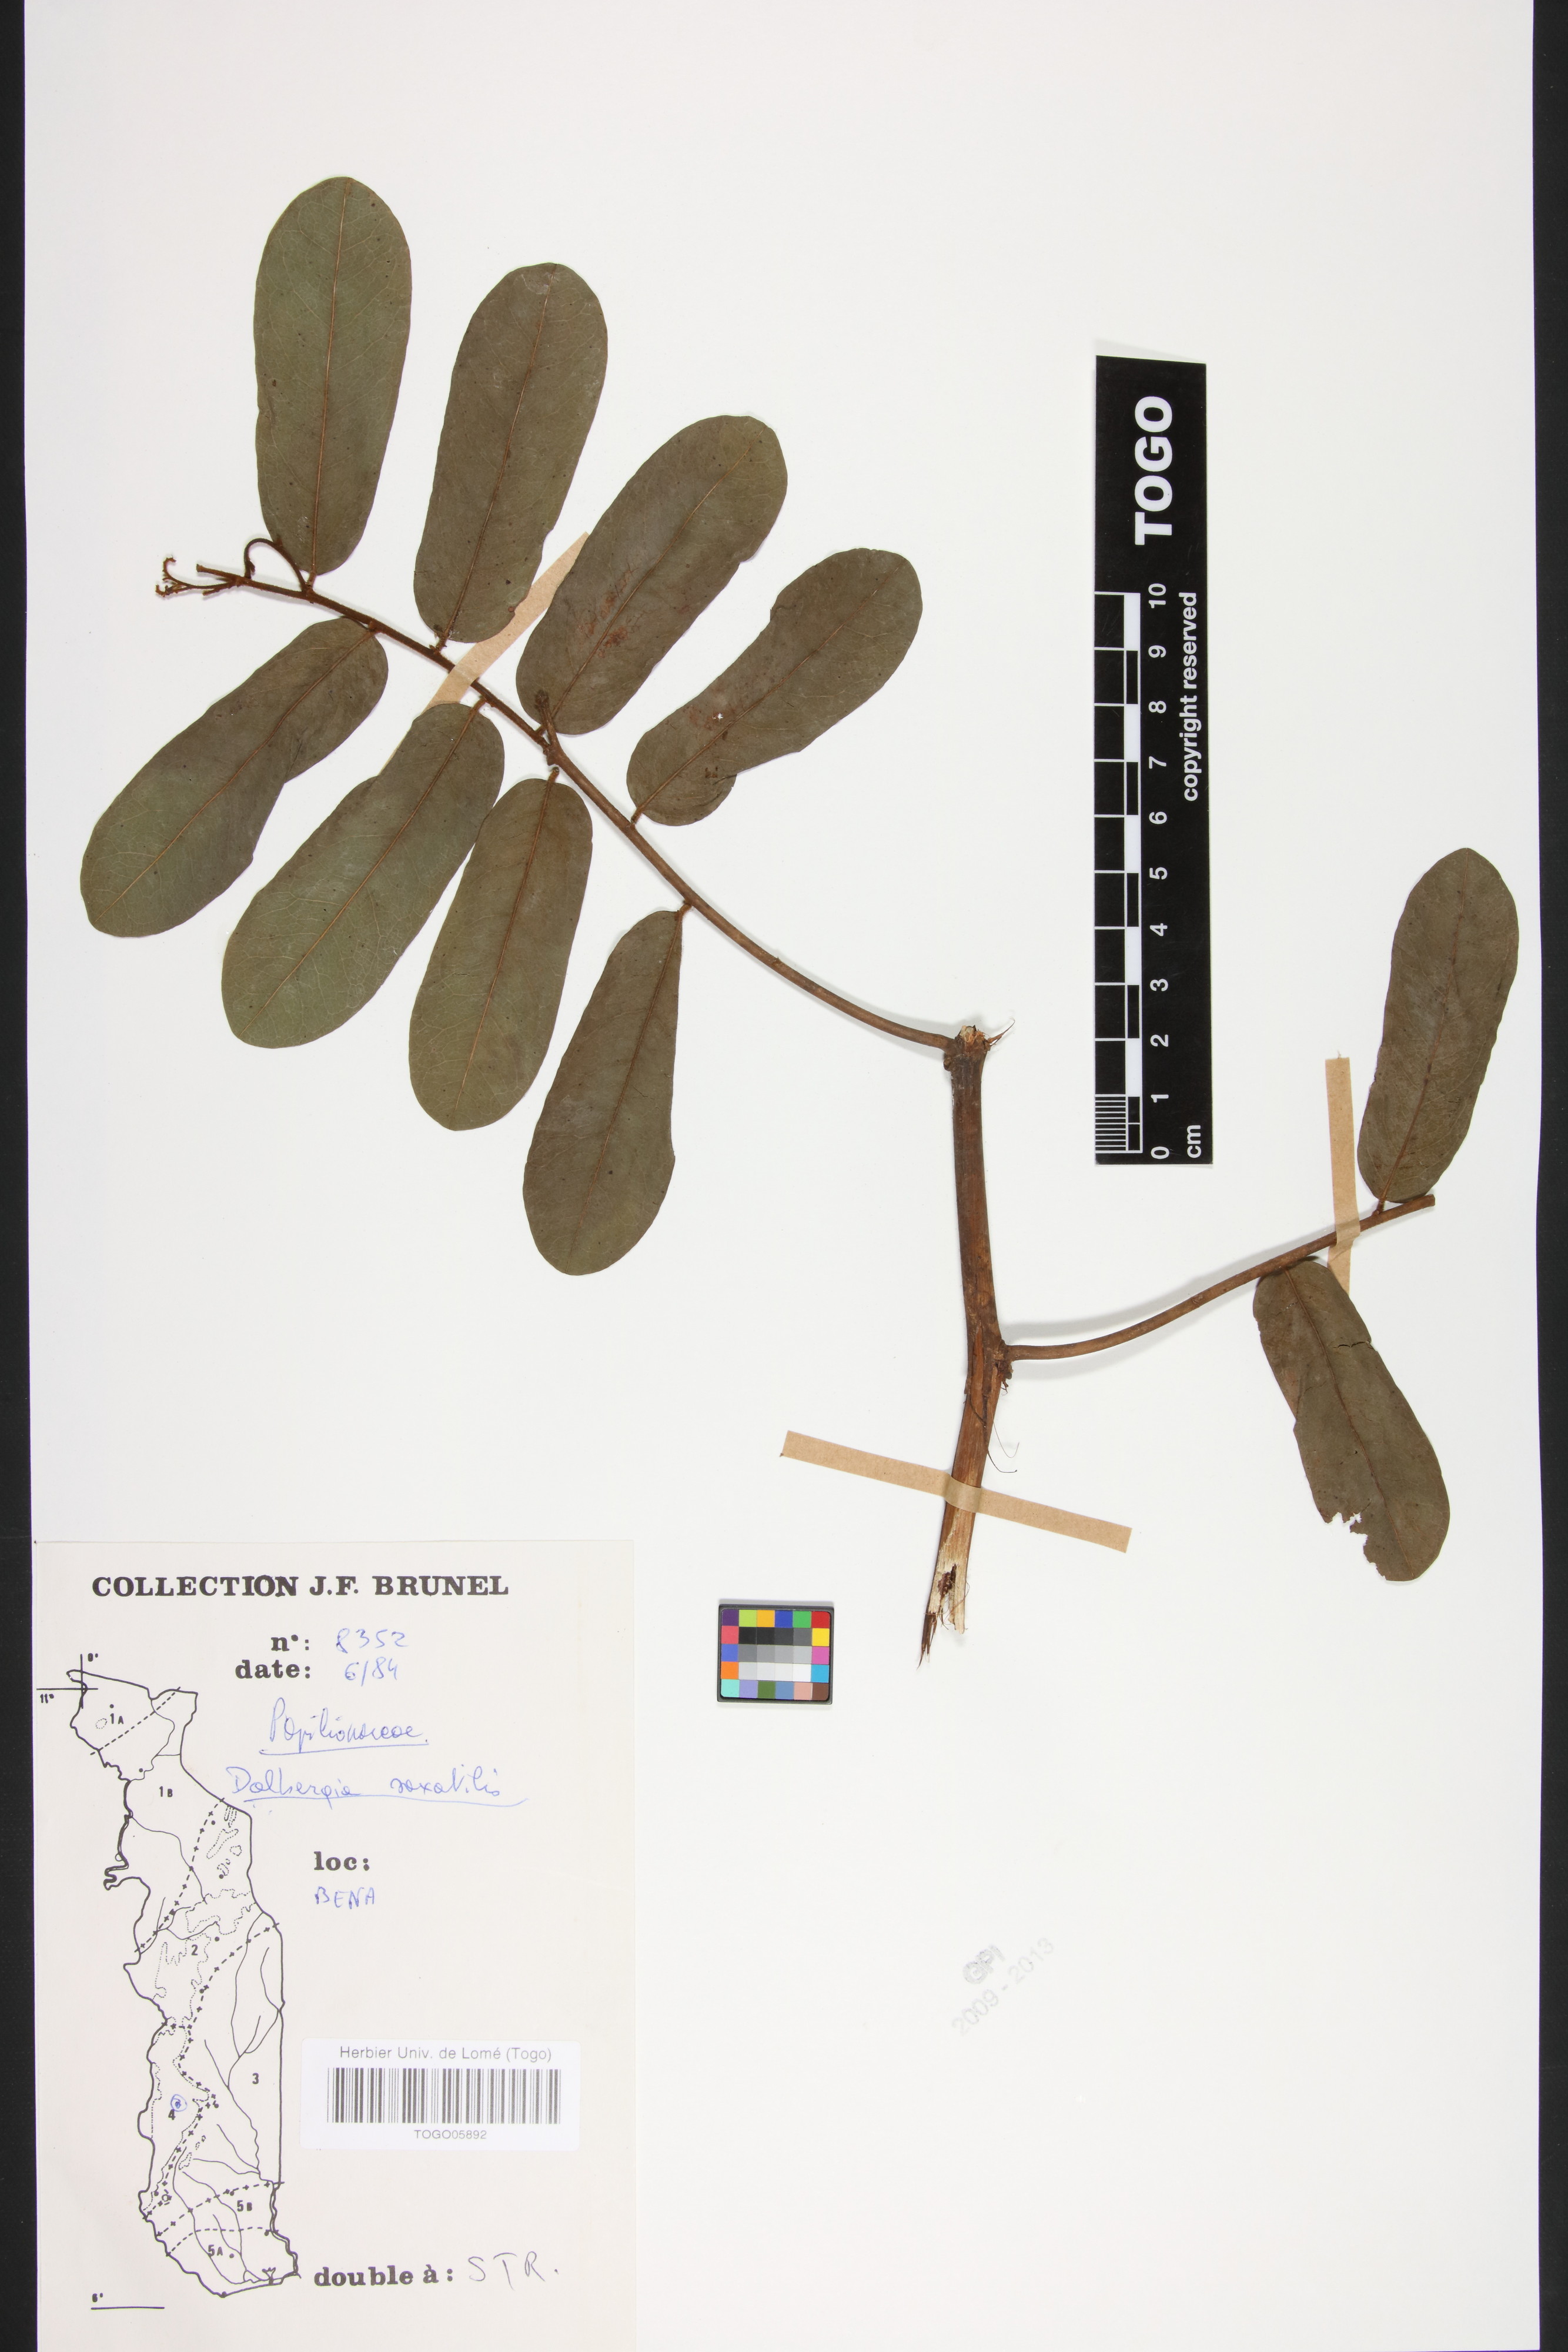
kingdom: Plantae
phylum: Tracheophyta
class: Magnoliopsida
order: Fabales
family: Fabaceae
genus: Dalbergia
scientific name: Dalbergia saxatilis
